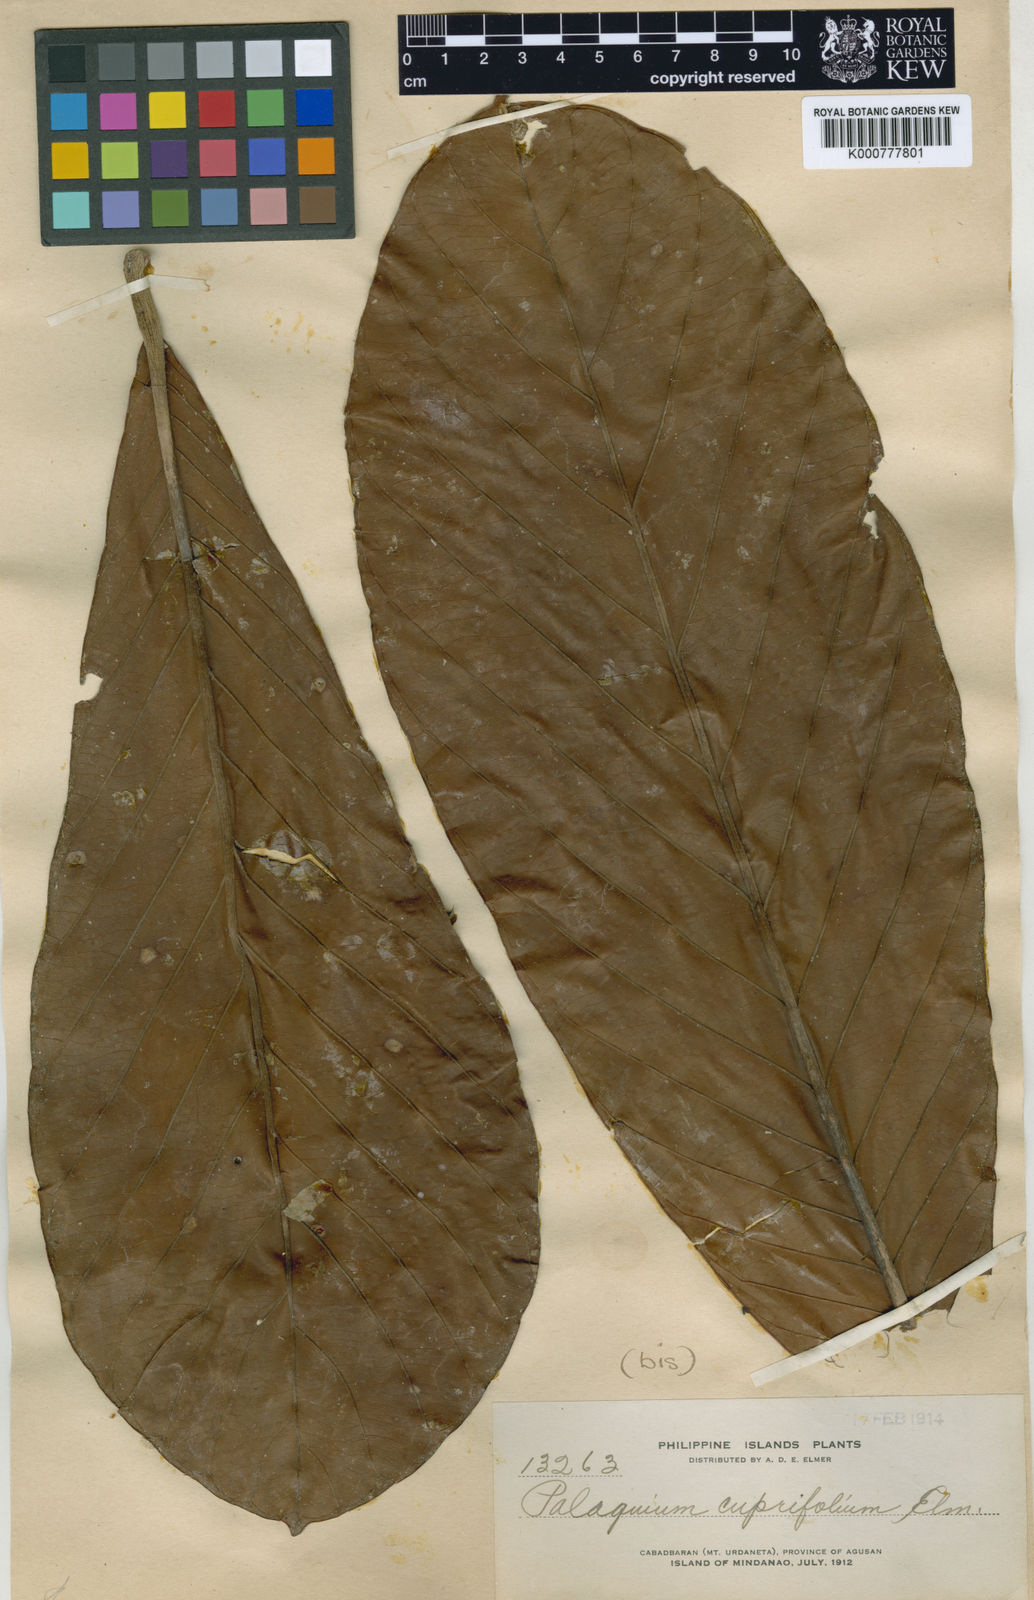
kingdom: Plantae
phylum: Tracheophyta
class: Magnoliopsida
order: Ericales
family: Sapotaceae
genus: Palaquium
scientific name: Palaquium cuprifolium
